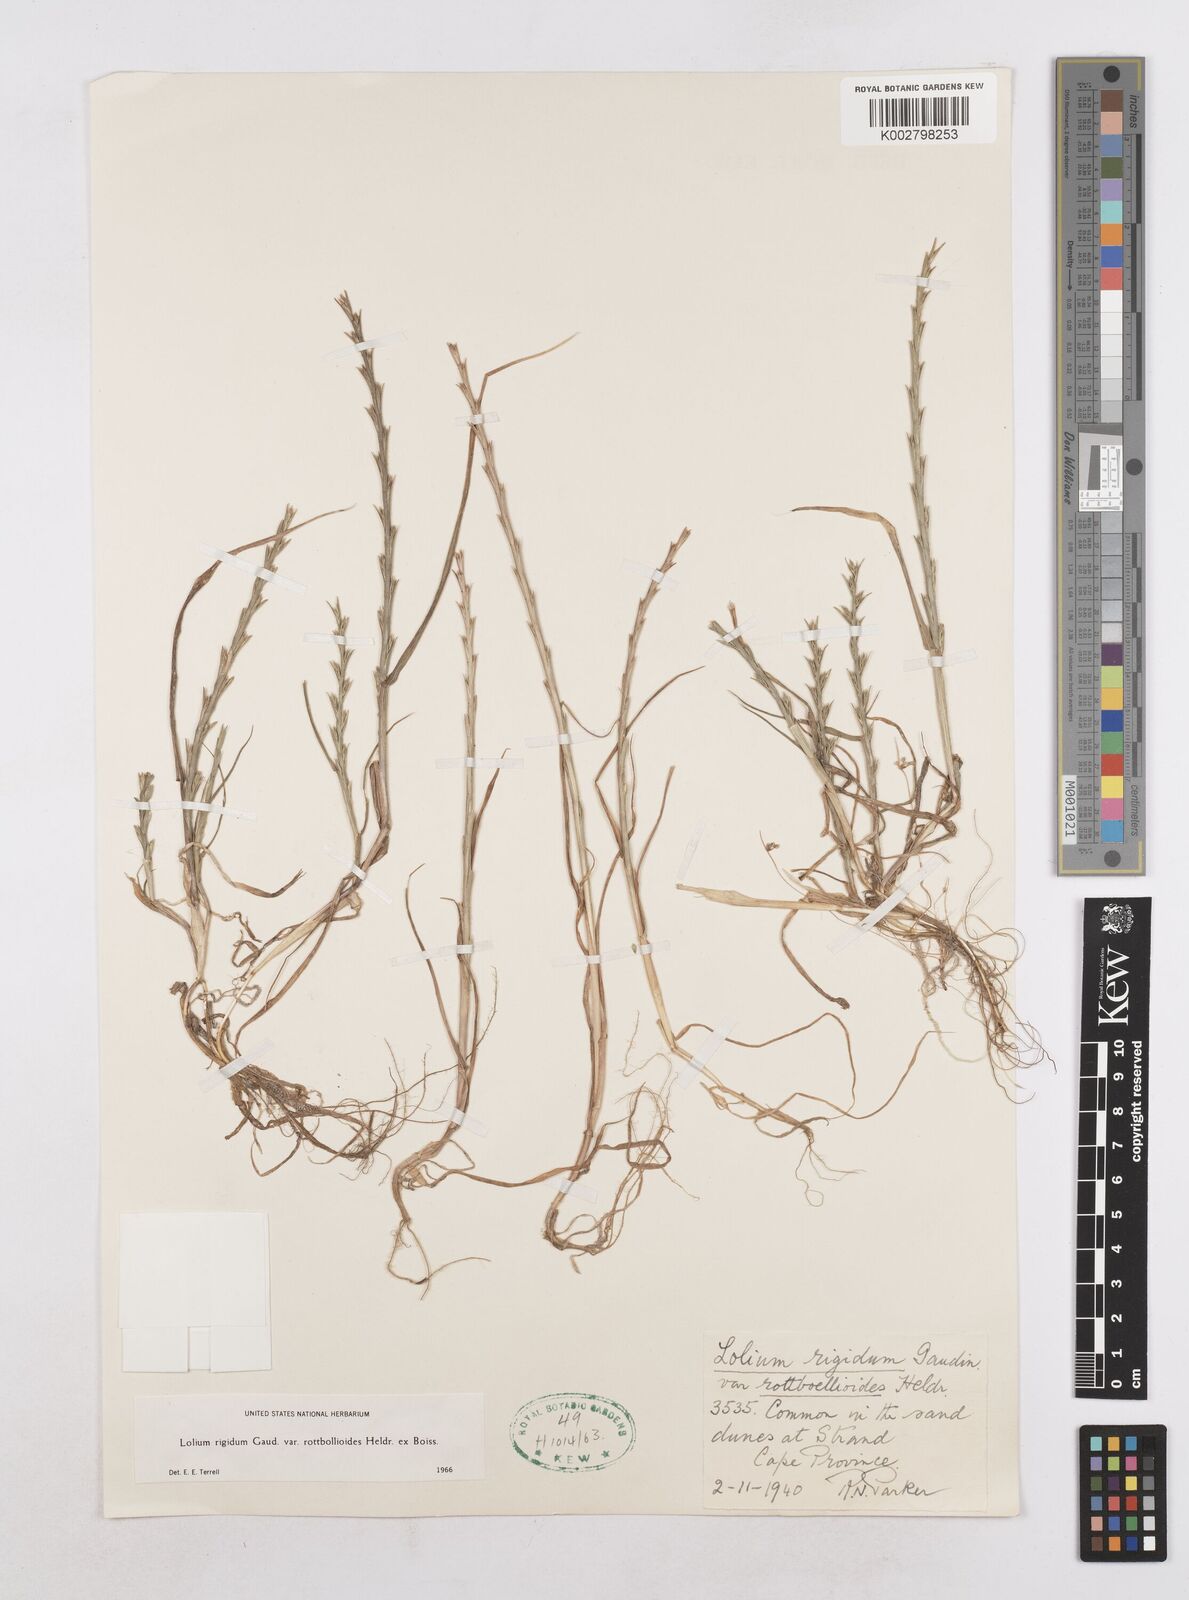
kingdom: Plantae
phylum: Tracheophyta
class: Liliopsida
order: Poales
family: Poaceae
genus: Lolium
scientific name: Lolium rigidum
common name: Wimmera ryegrass
